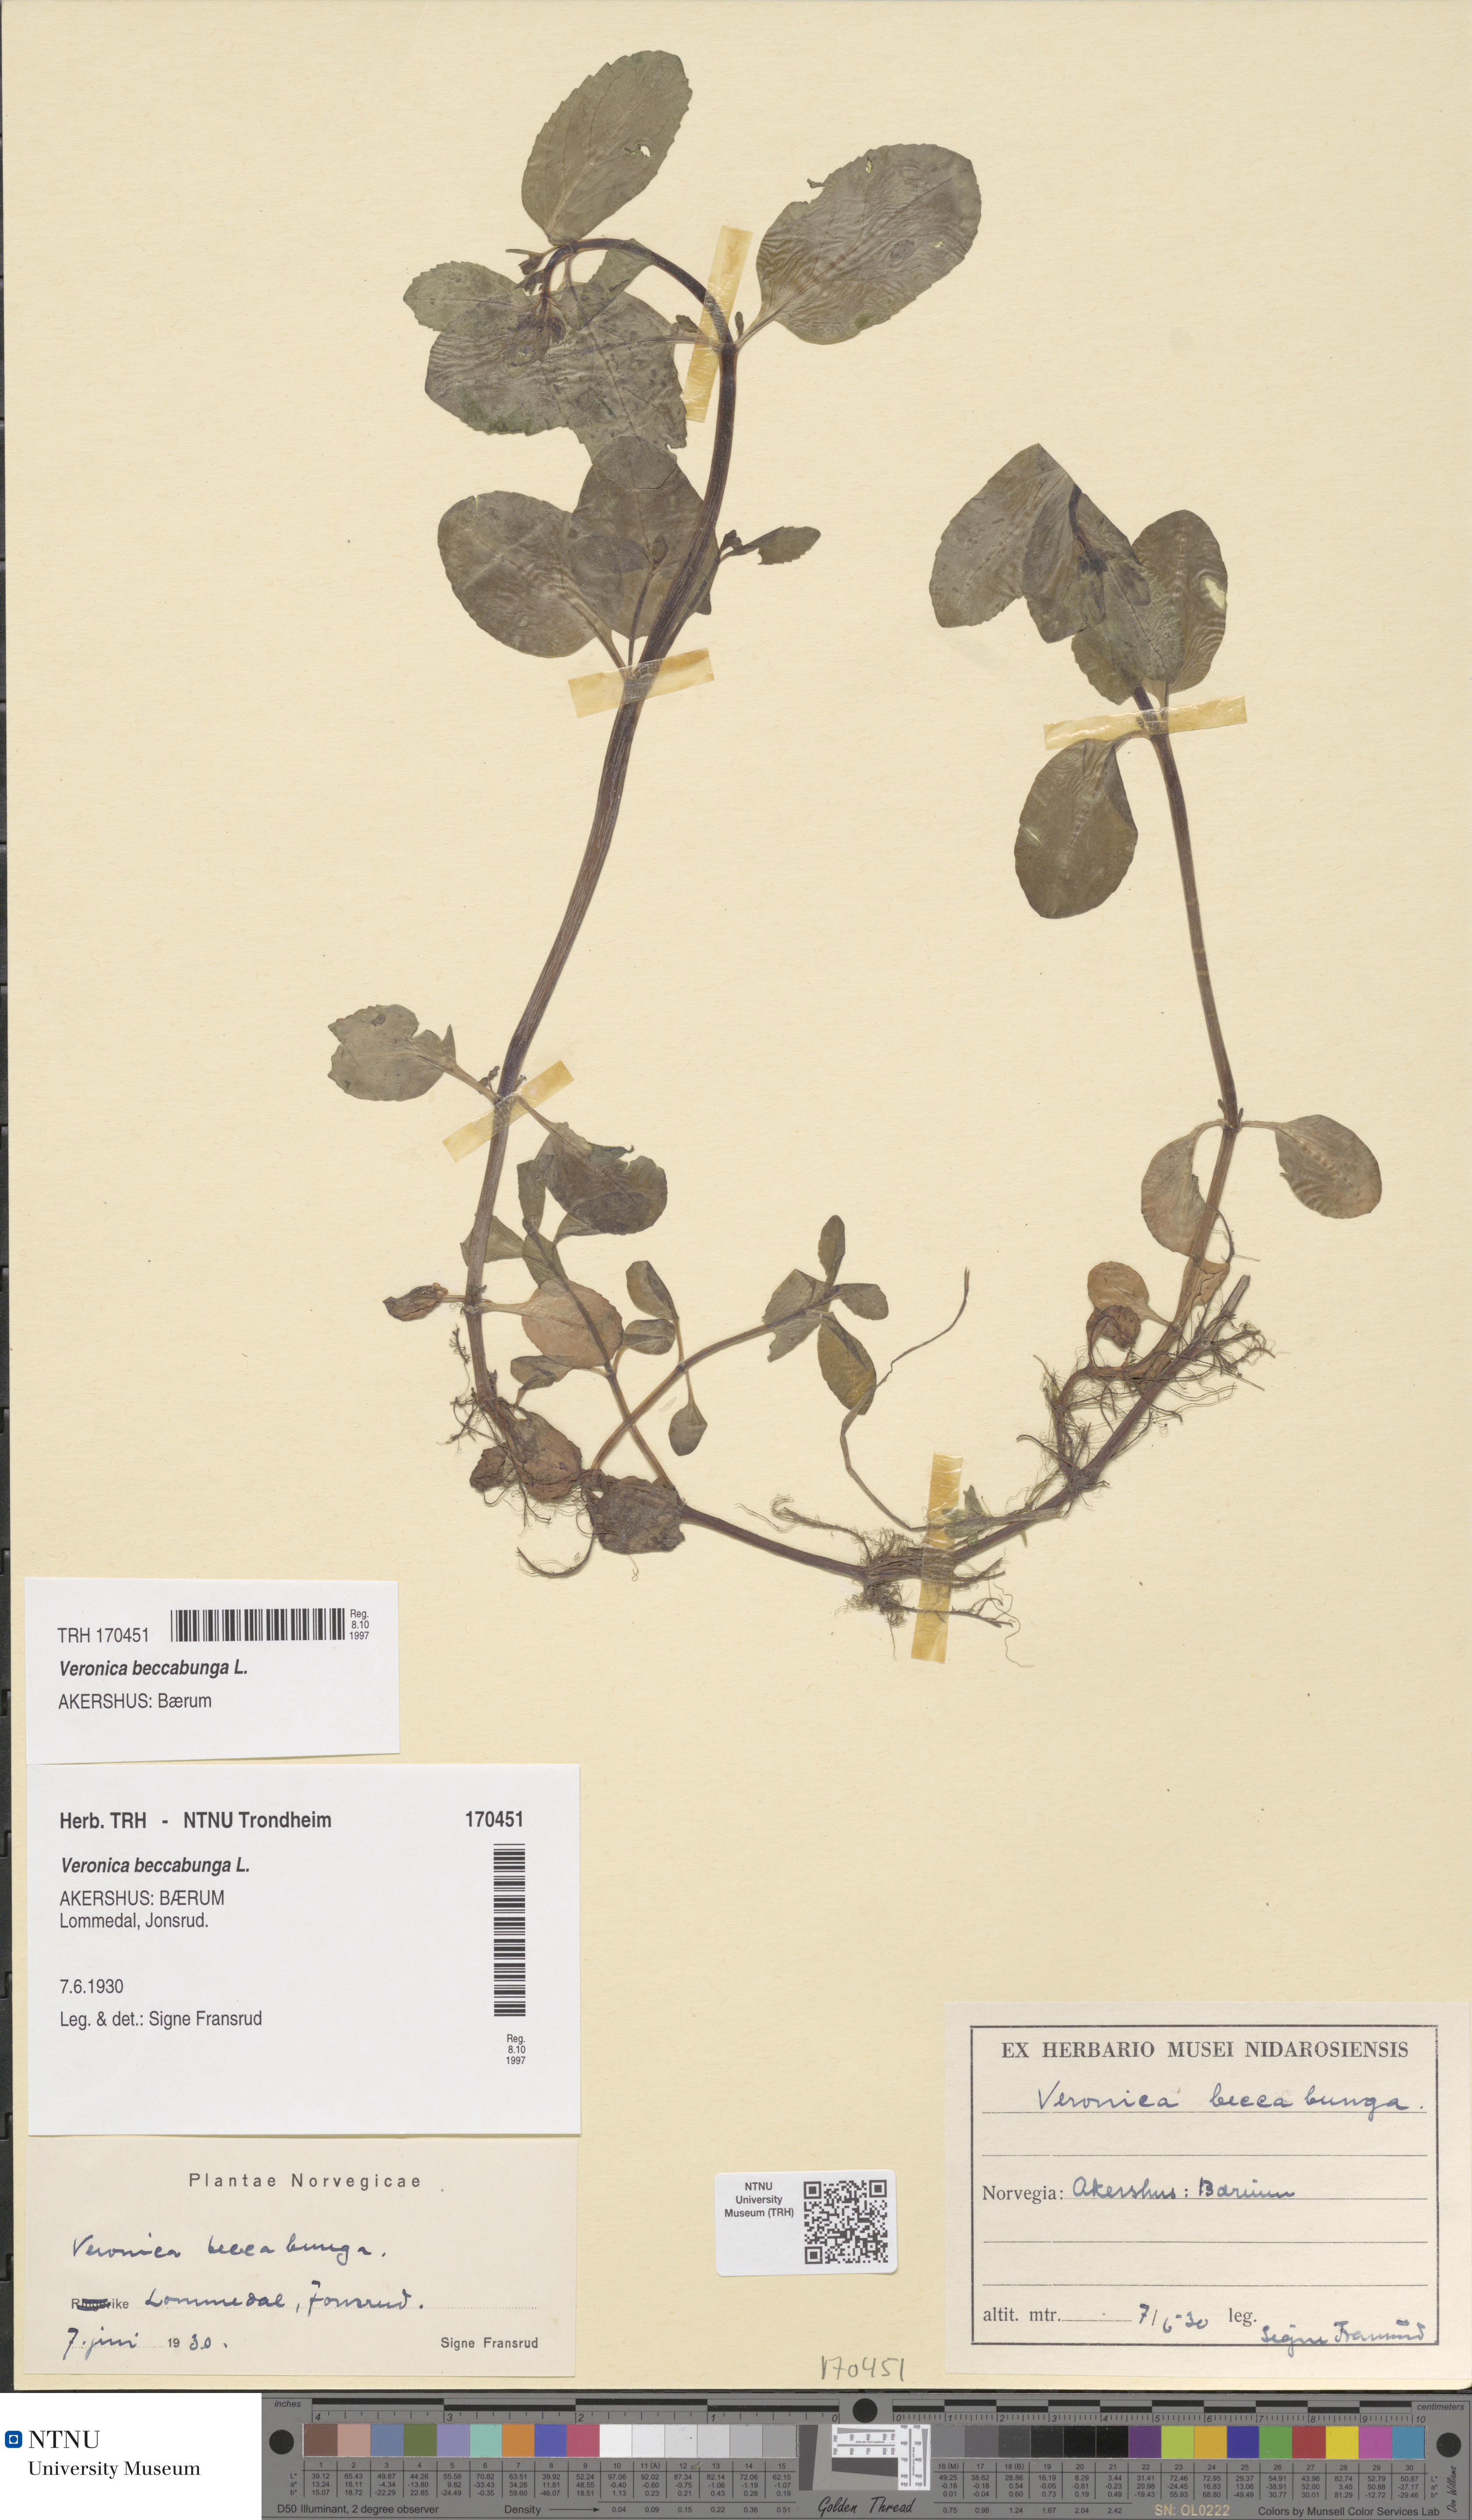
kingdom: Plantae
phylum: Tracheophyta
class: Magnoliopsida
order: Lamiales
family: Plantaginaceae
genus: Veronica
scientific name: Veronica beccabunga
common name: Brooklime
